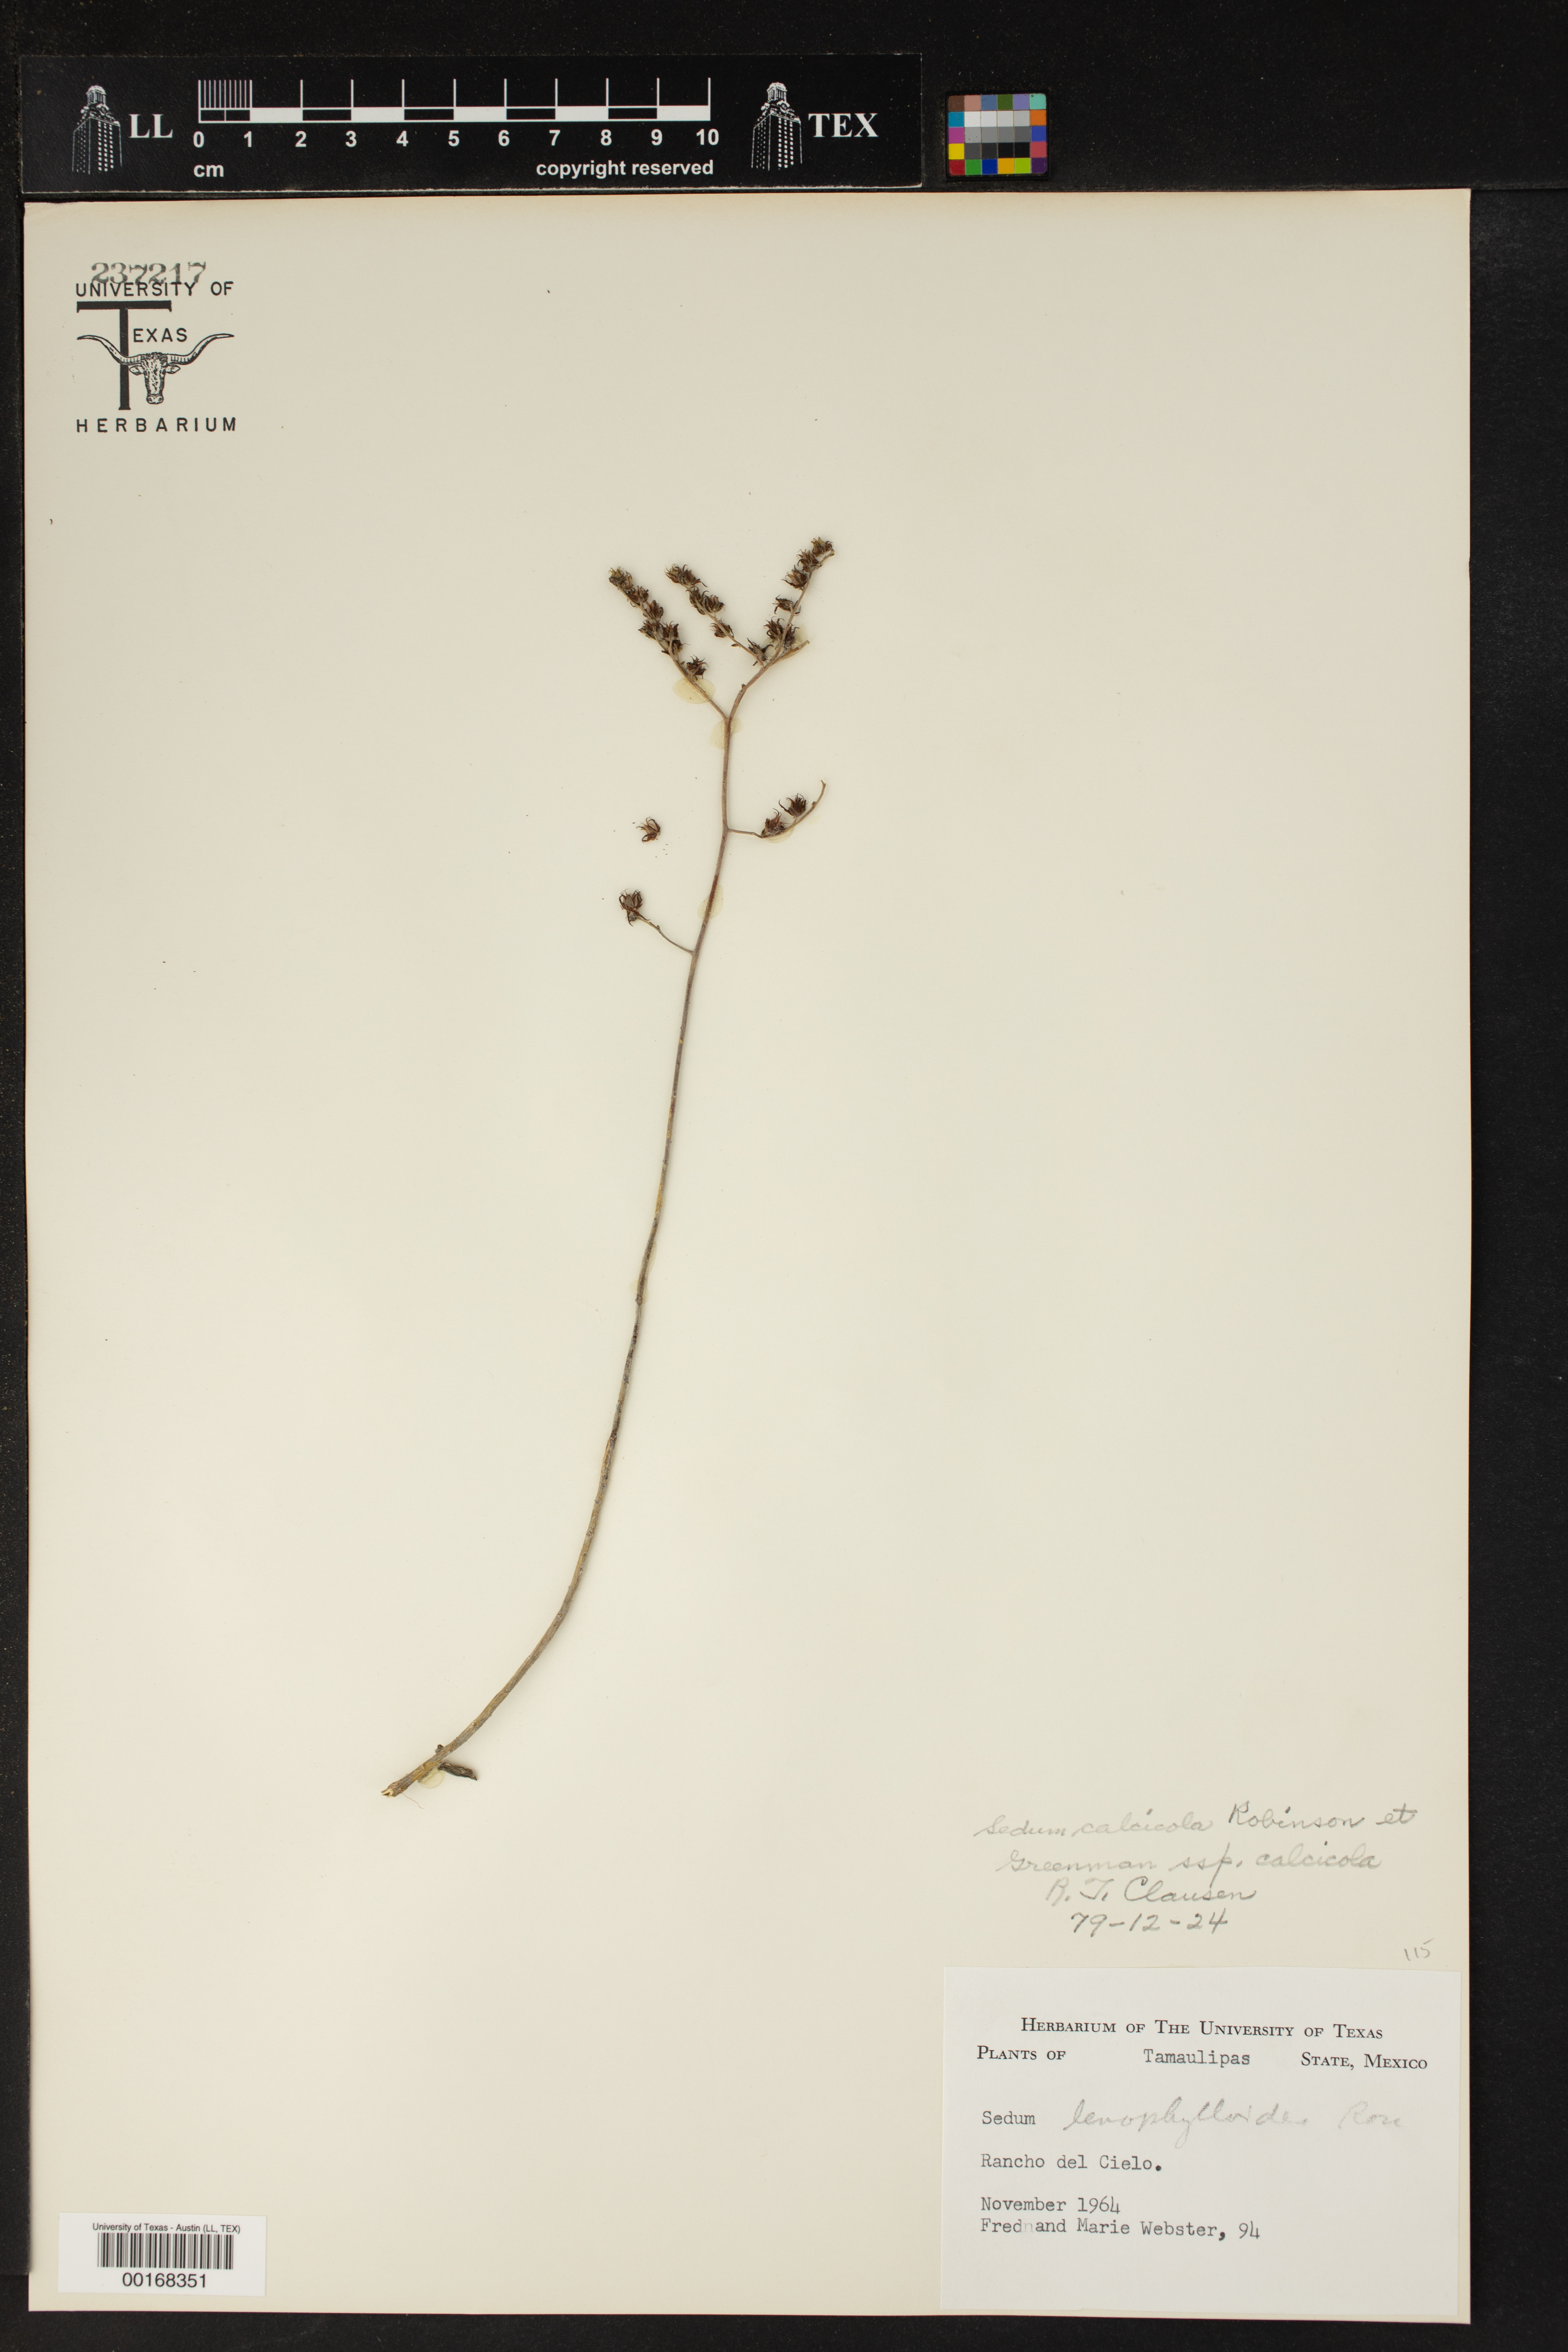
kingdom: Plantae
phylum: Tracheophyta
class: Magnoliopsida
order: Saxifragales
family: Crassulaceae
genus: Sedum
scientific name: Sedum calcicola
